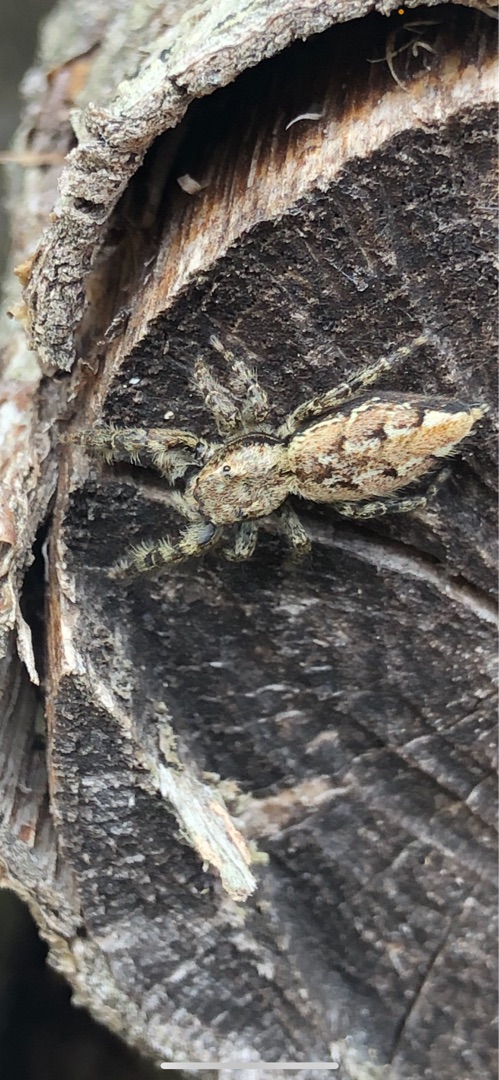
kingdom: Animalia
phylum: Arthropoda
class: Arachnida
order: Araneae
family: Salticidae
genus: Marpissa
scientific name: Marpissa muscosa
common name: Stor springedderkop
